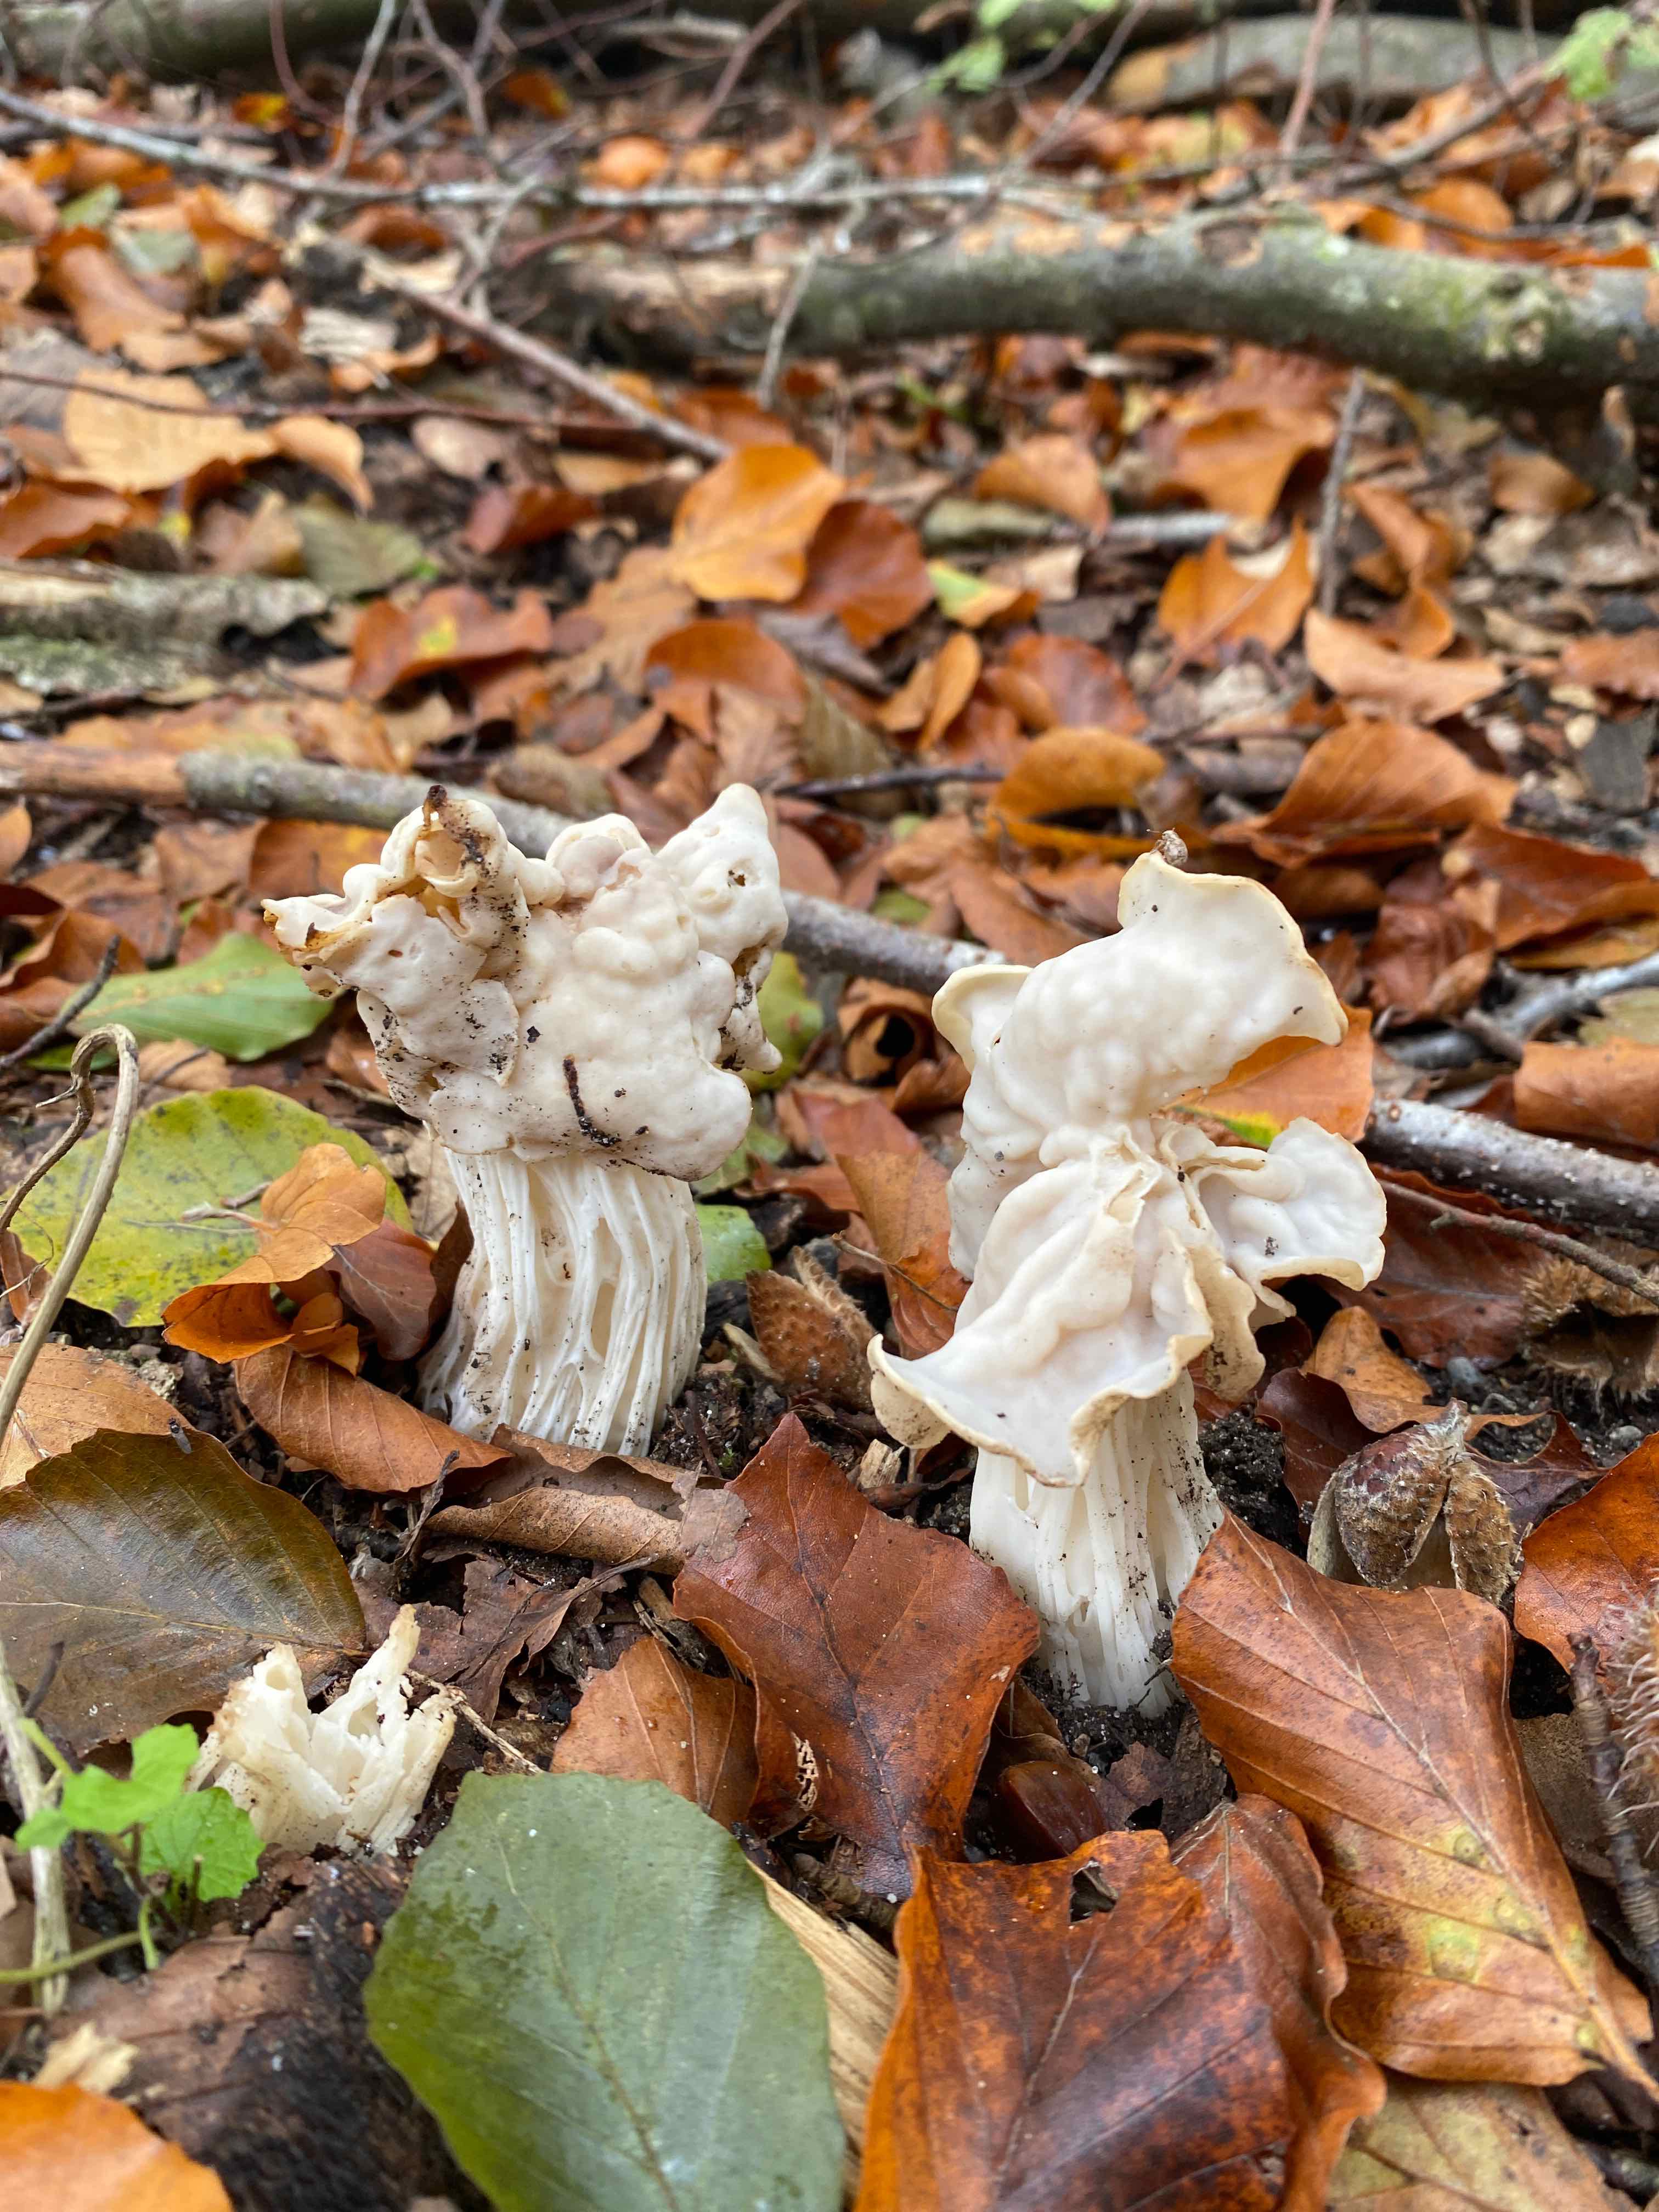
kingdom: Fungi
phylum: Ascomycota
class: Pezizomycetes
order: Pezizales
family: Helvellaceae
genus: Helvella
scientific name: Helvella crispa
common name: kruset foldhat
